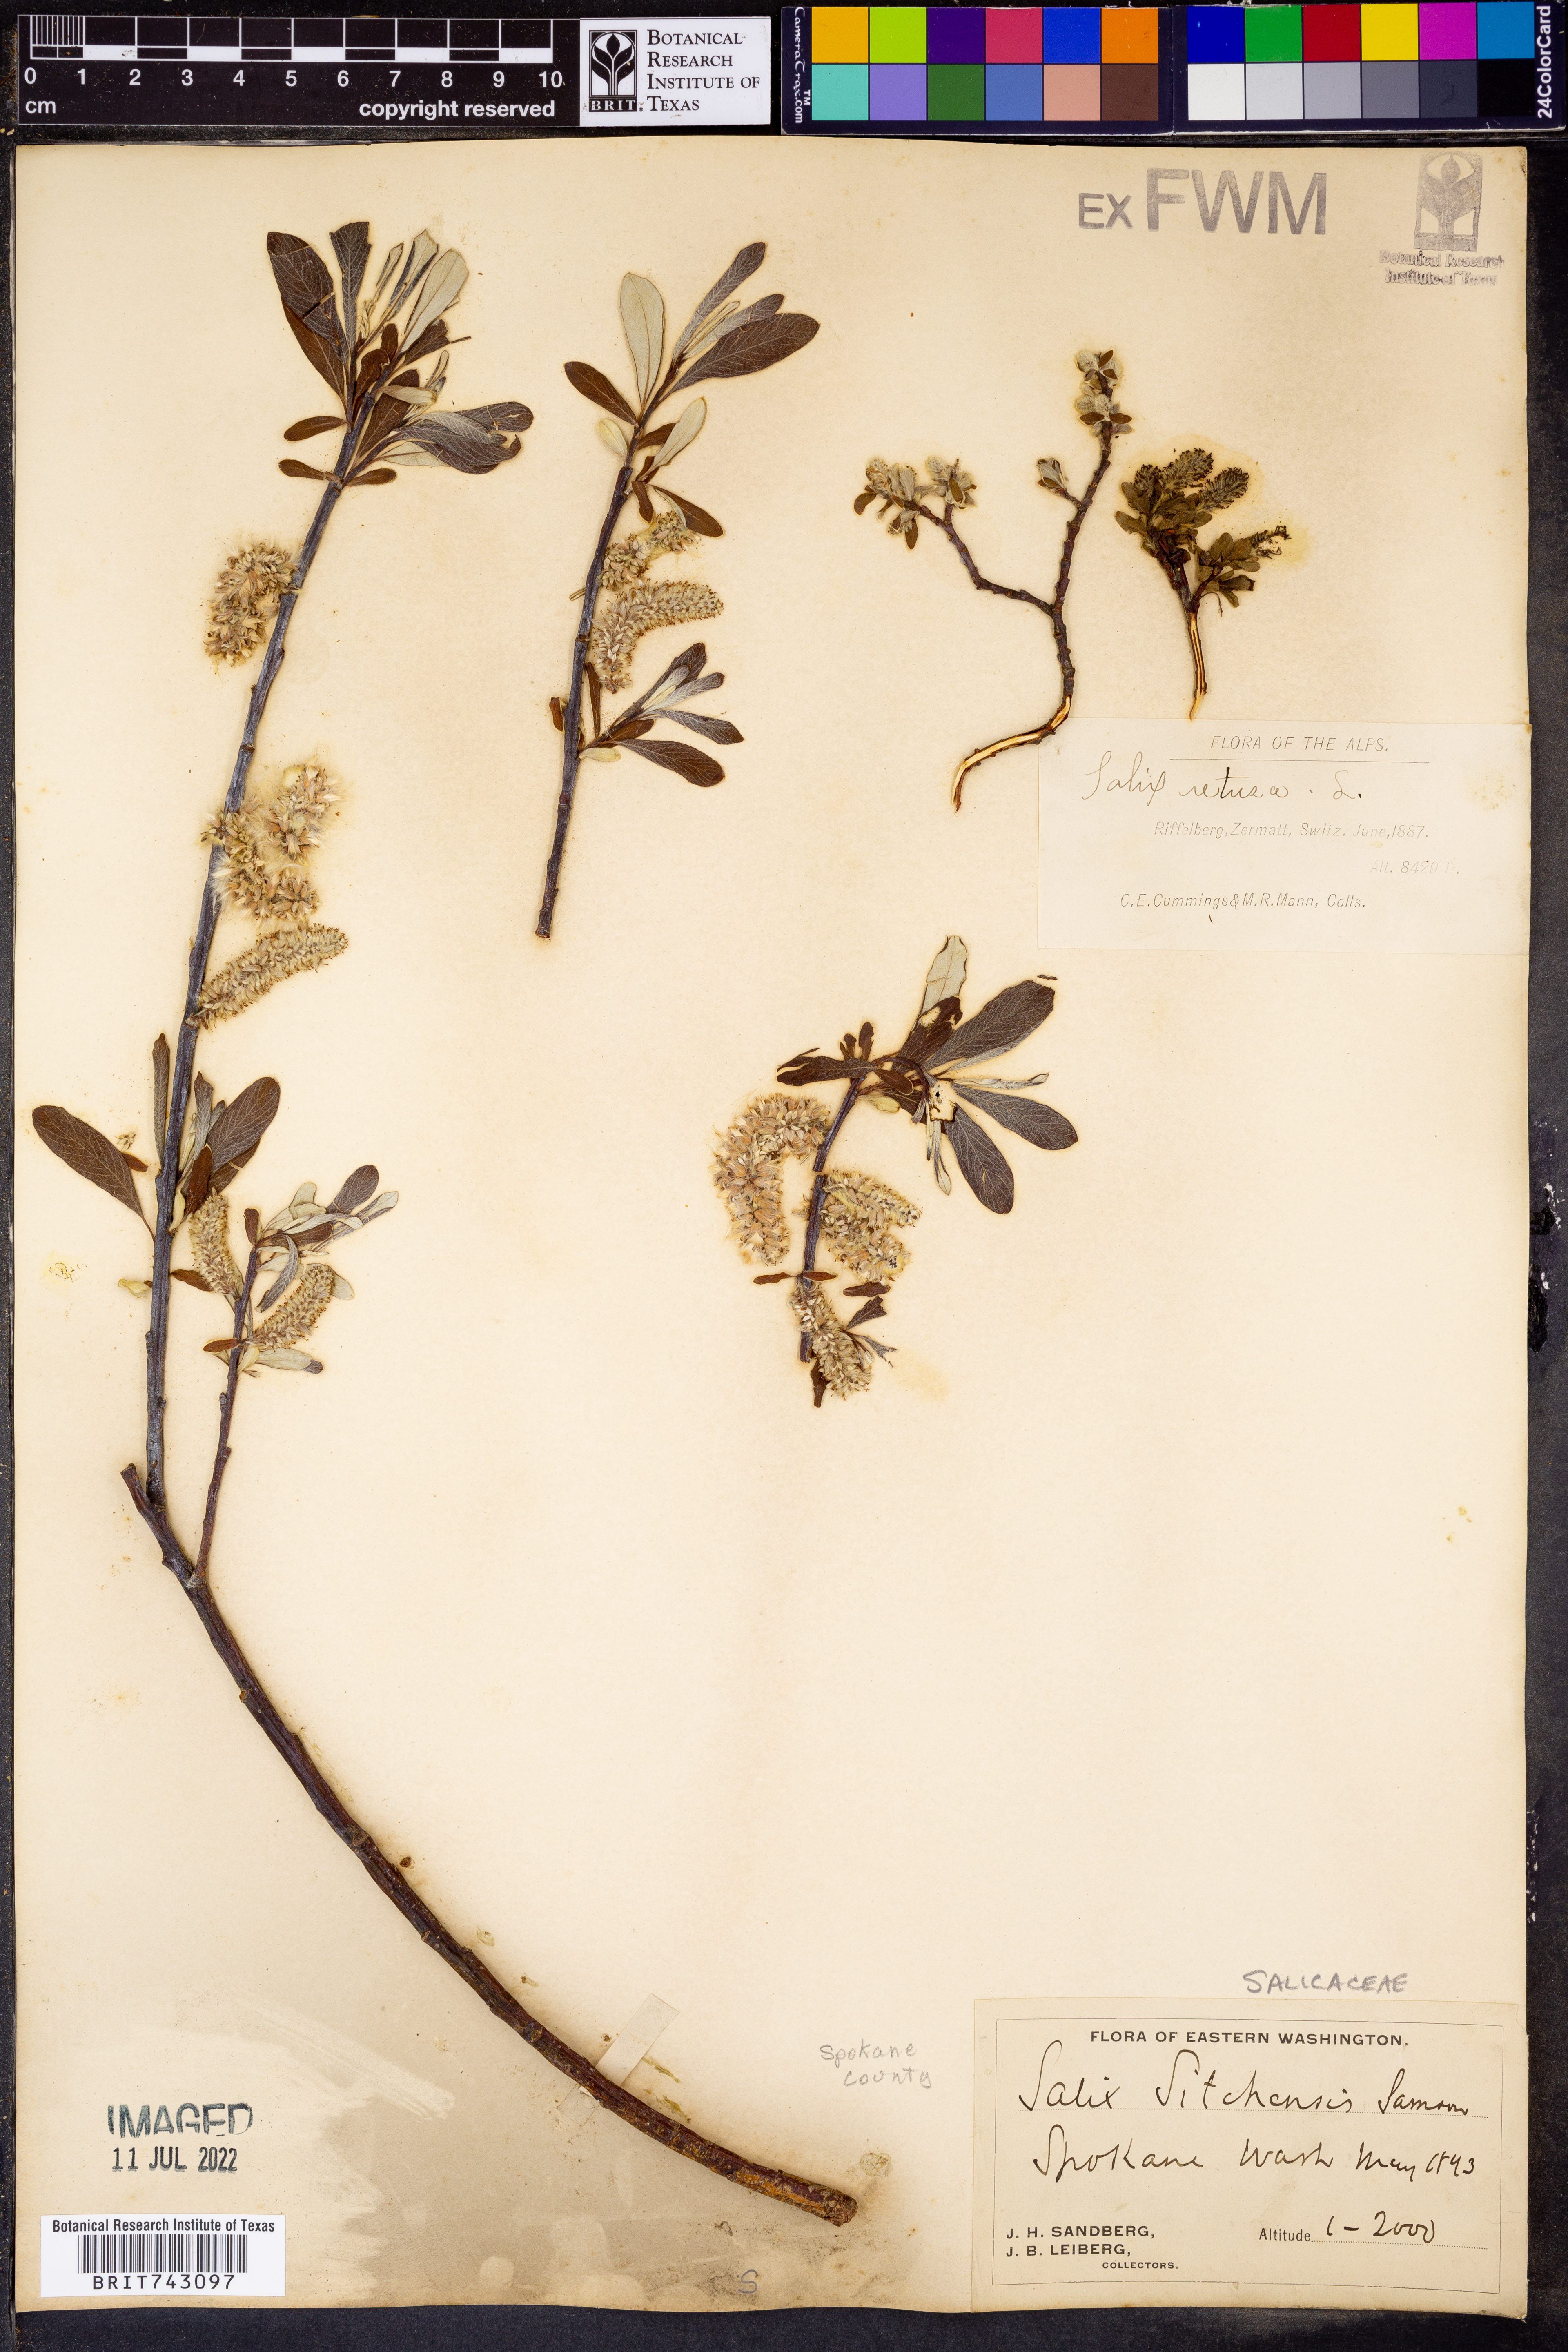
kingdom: Plantae
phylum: Tracheophyta
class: Magnoliopsida
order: Malpighiales
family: Salicaceae
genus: Salix
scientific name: Salix sitchensis
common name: Sitka willow
